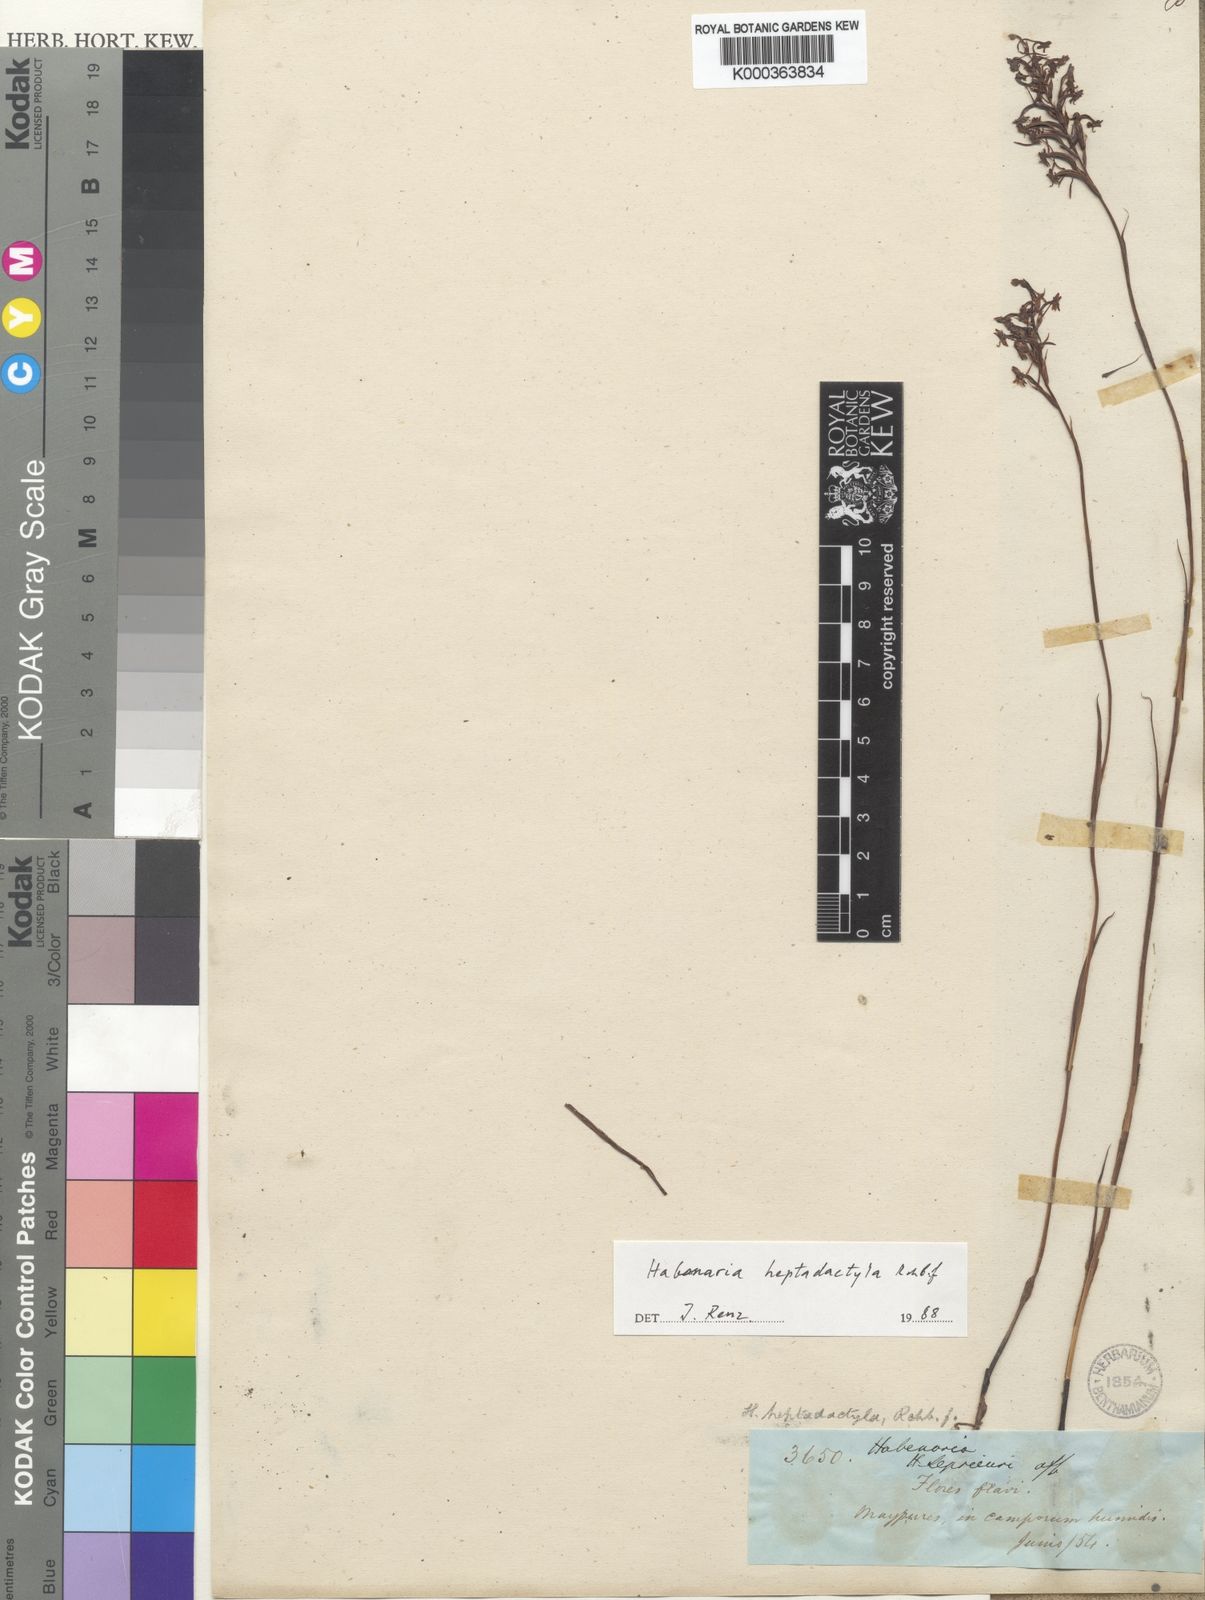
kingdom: Plantae
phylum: Tracheophyta
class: Liliopsida
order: Asparagales
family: Orchidaceae
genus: Habenaria
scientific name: Habenaria heptadactyla
